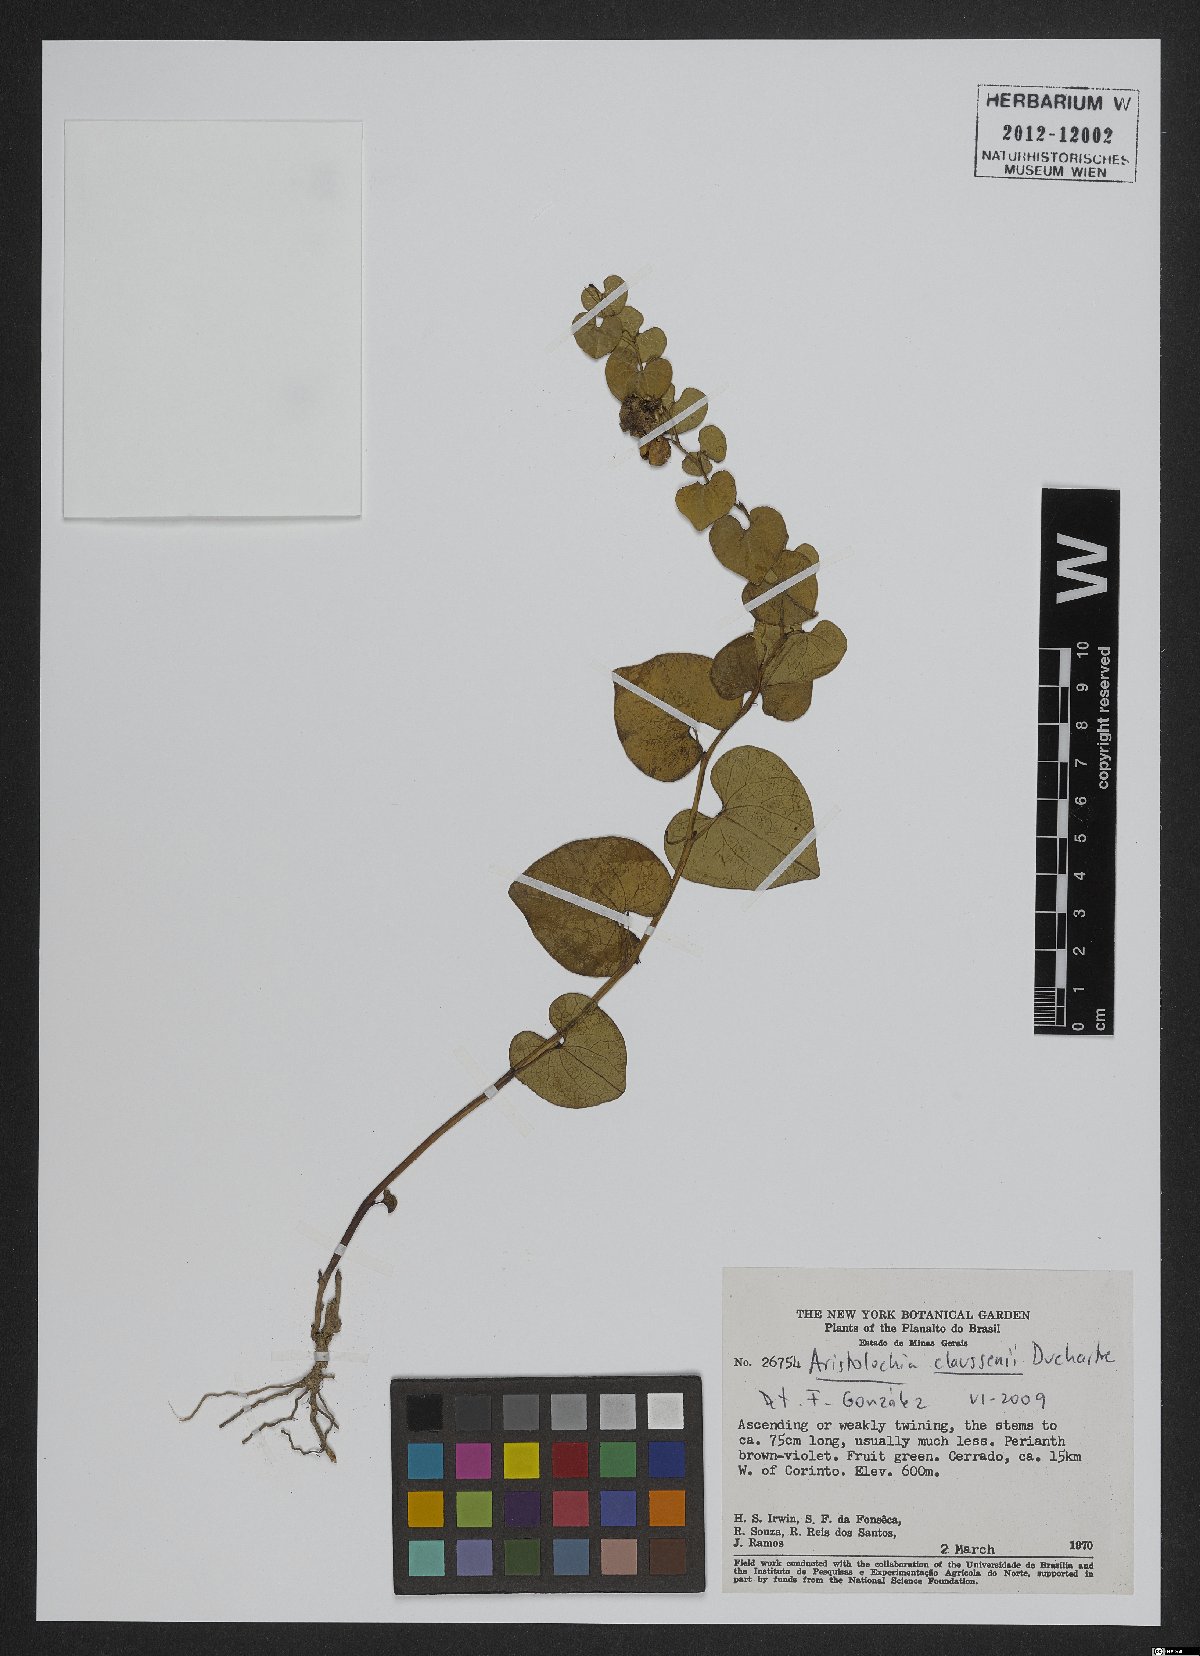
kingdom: Plantae
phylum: Tracheophyta
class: Magnoliopsida
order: Piperales
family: Aristolochiaceae
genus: Aristolochia
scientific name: Aristolochia nummularifolia
